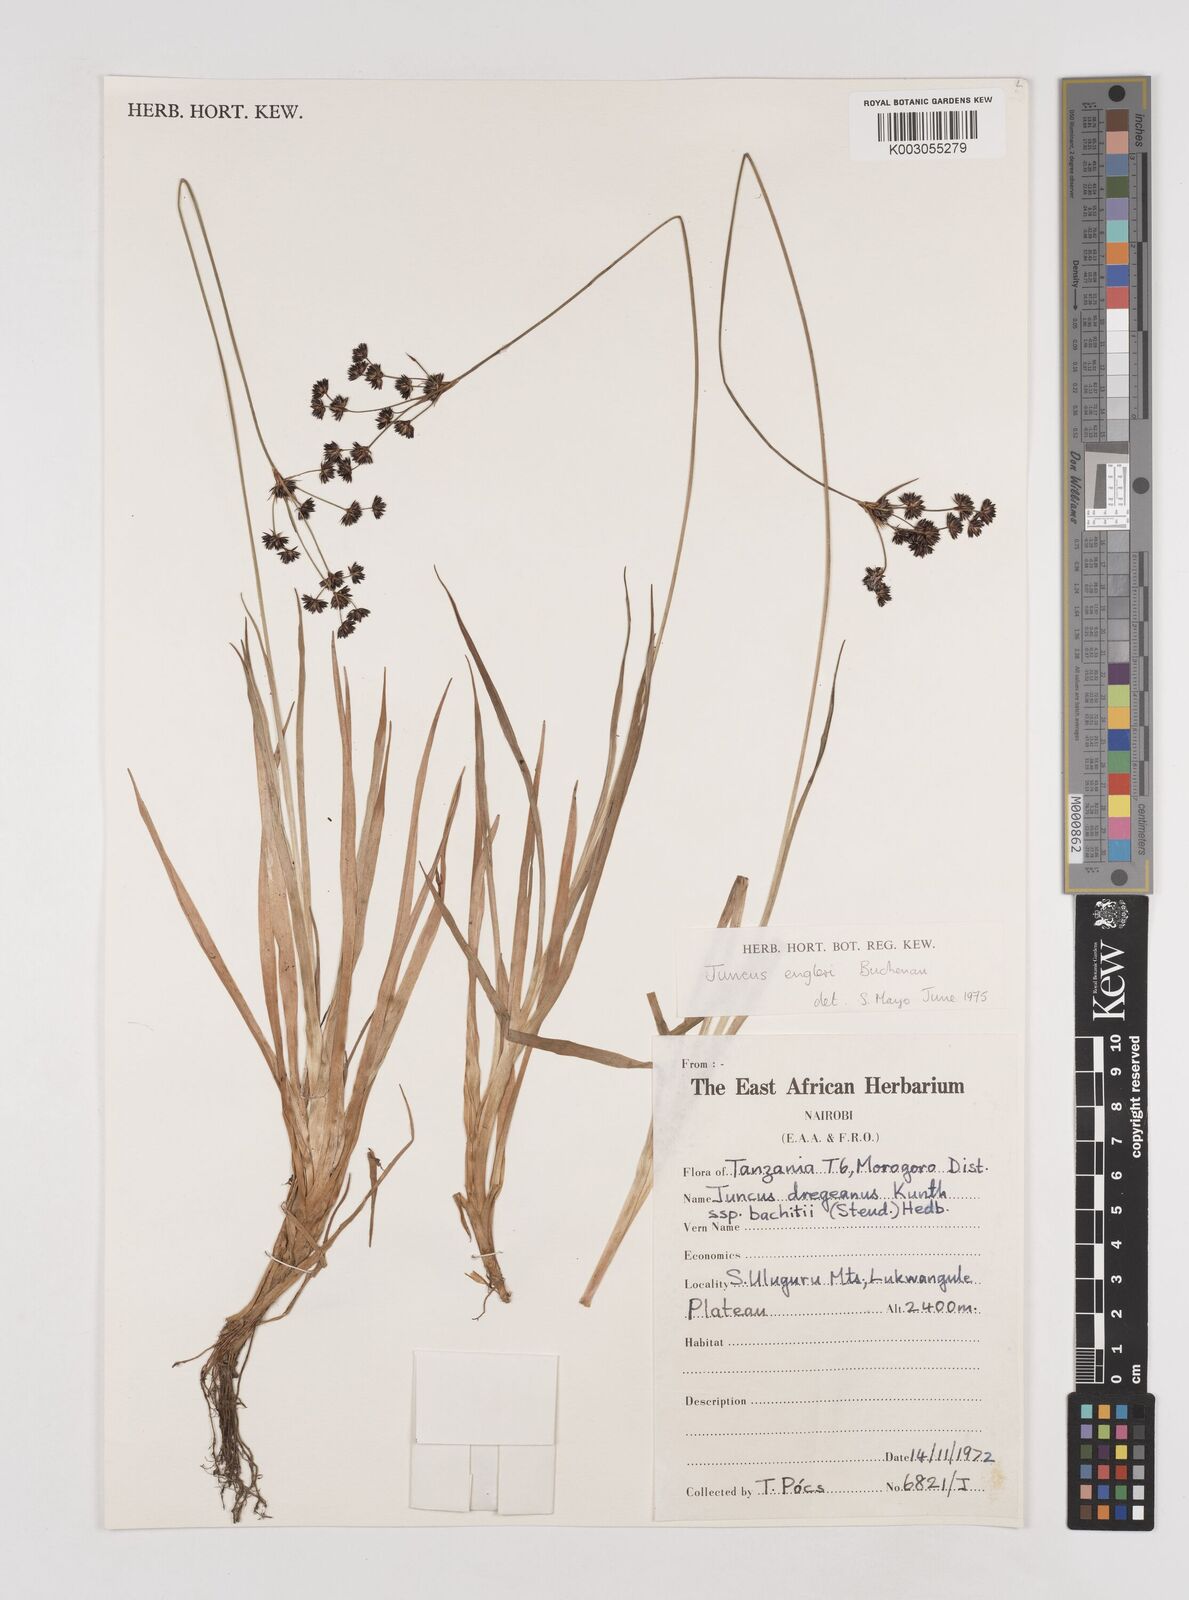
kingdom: Plantae
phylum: Tracheophyta
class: Liliopsida
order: Poales
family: Juncaceae
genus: Juncus
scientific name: Juncus engleri
